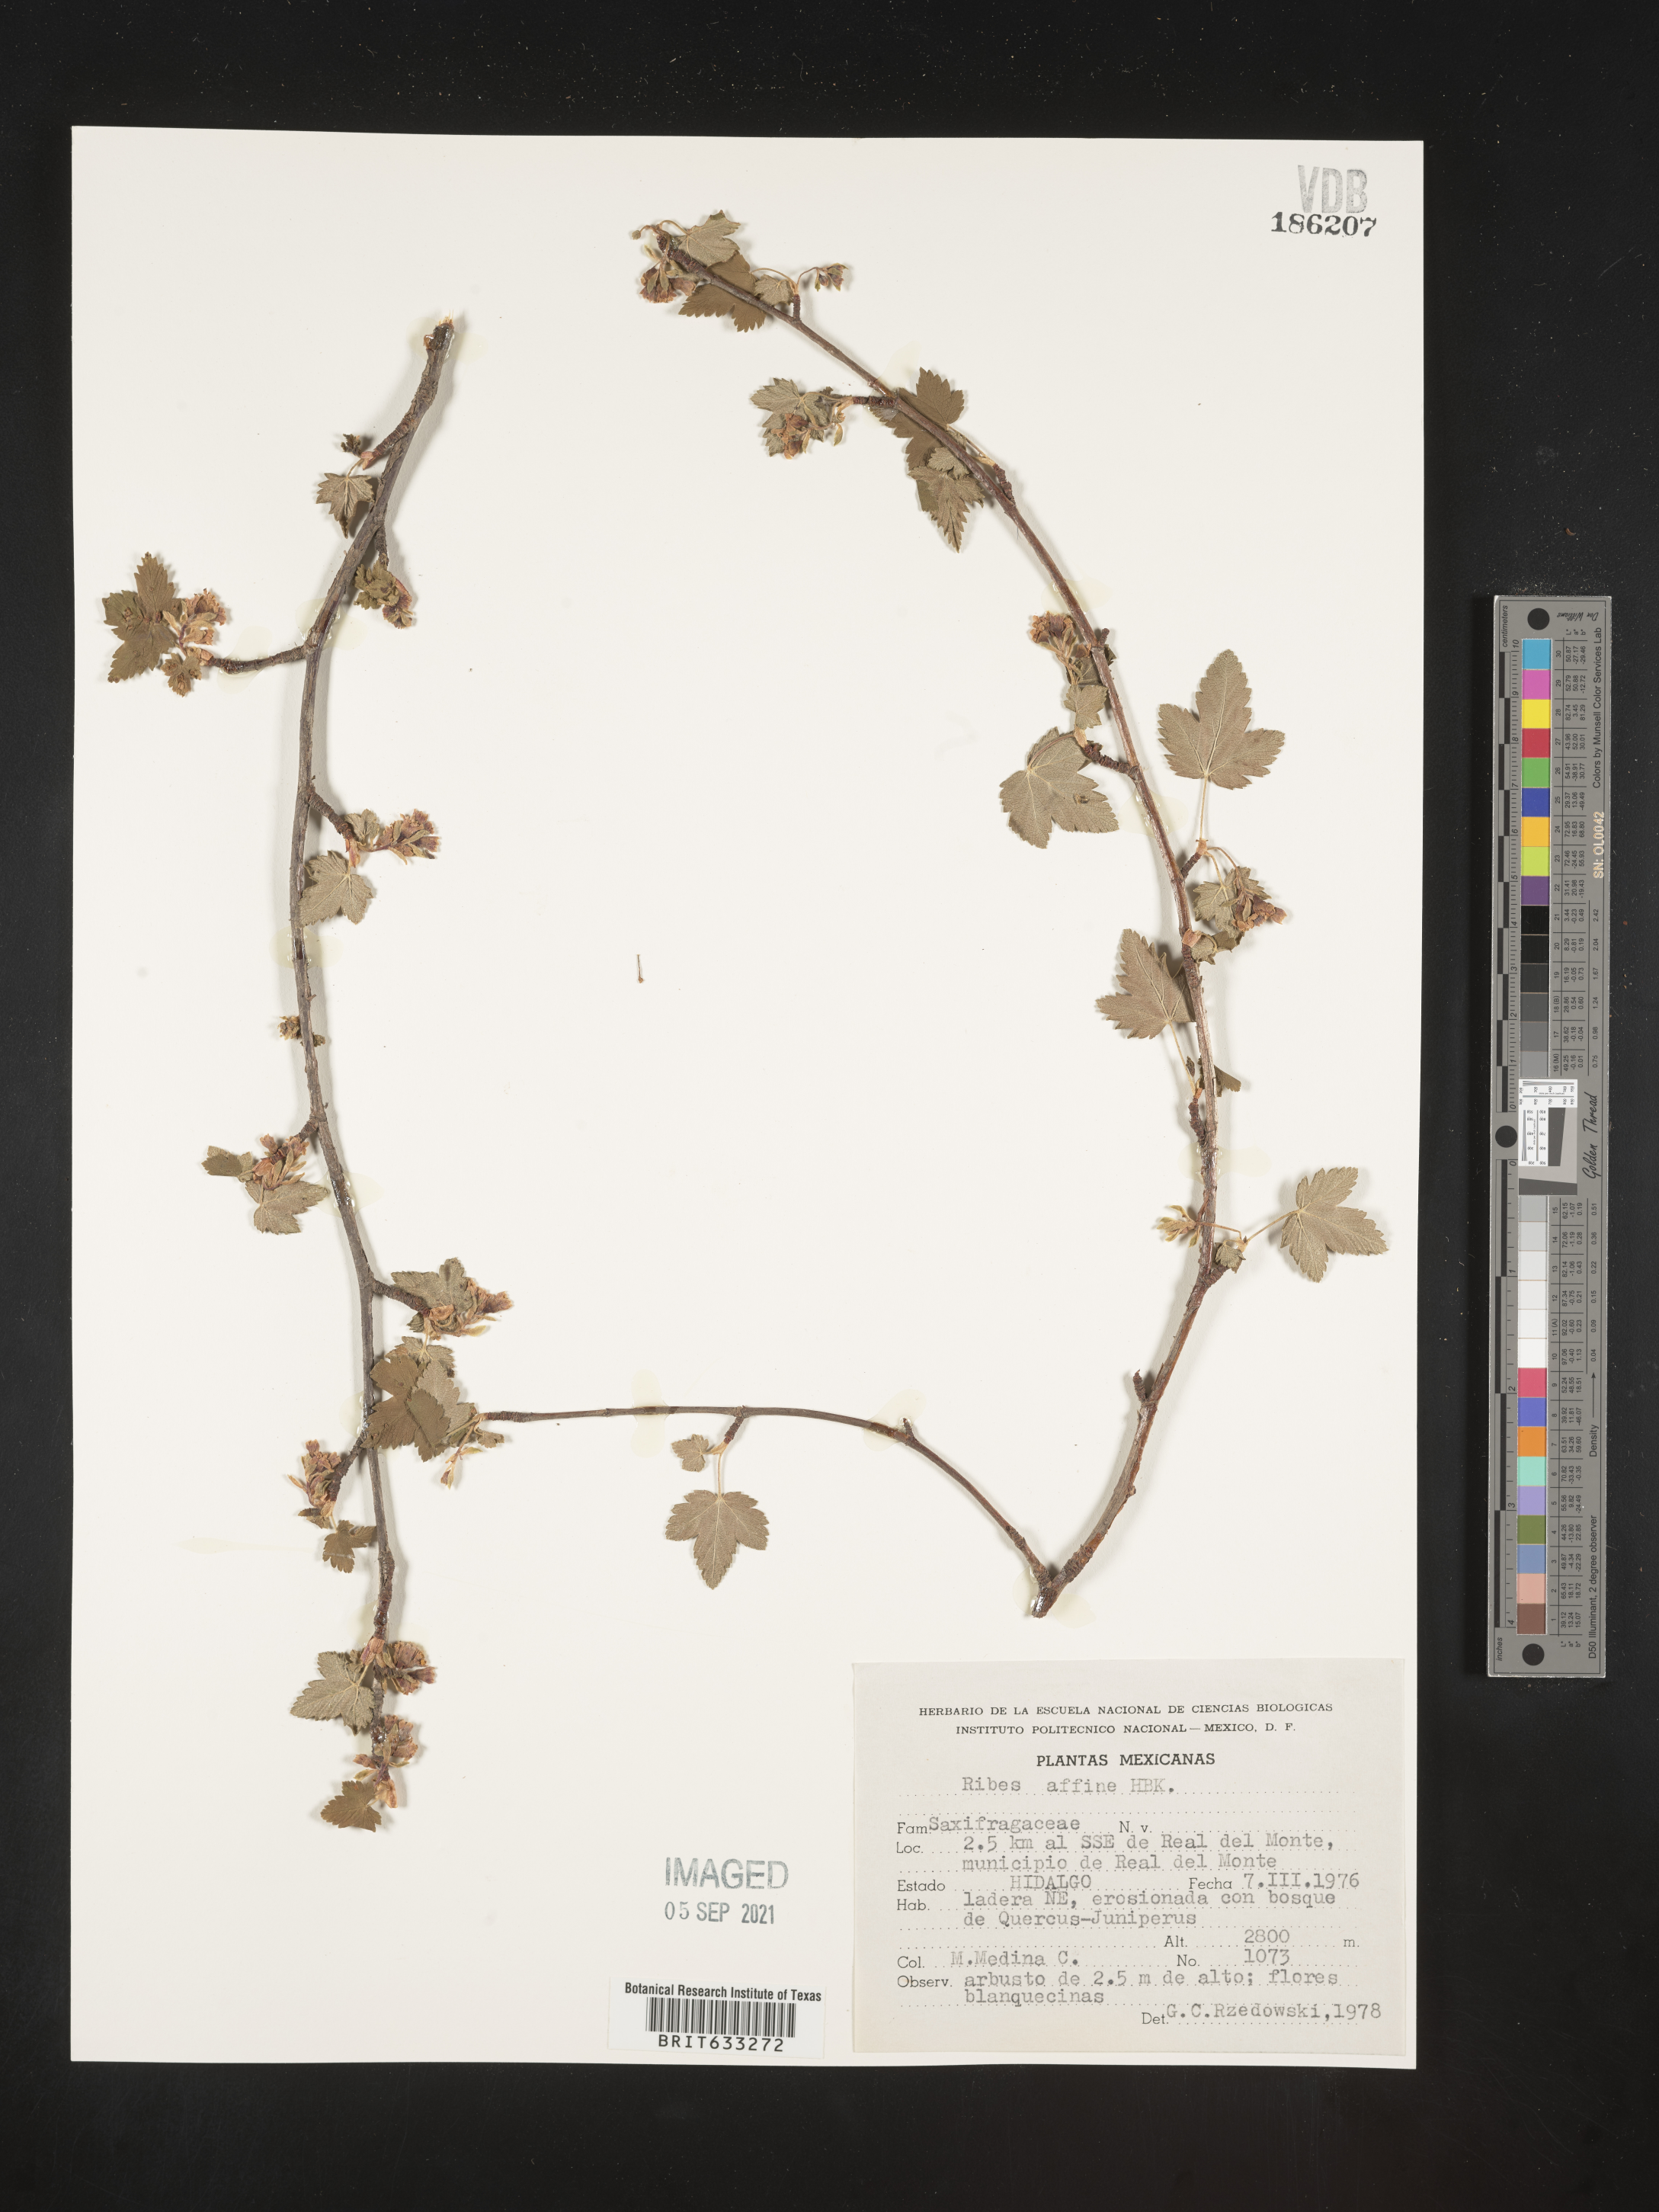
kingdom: Plantae
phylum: Tracheophyta
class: Magnoliopsida
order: Saxifragales
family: Grossulariaceae
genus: Ribes
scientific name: Ribes
